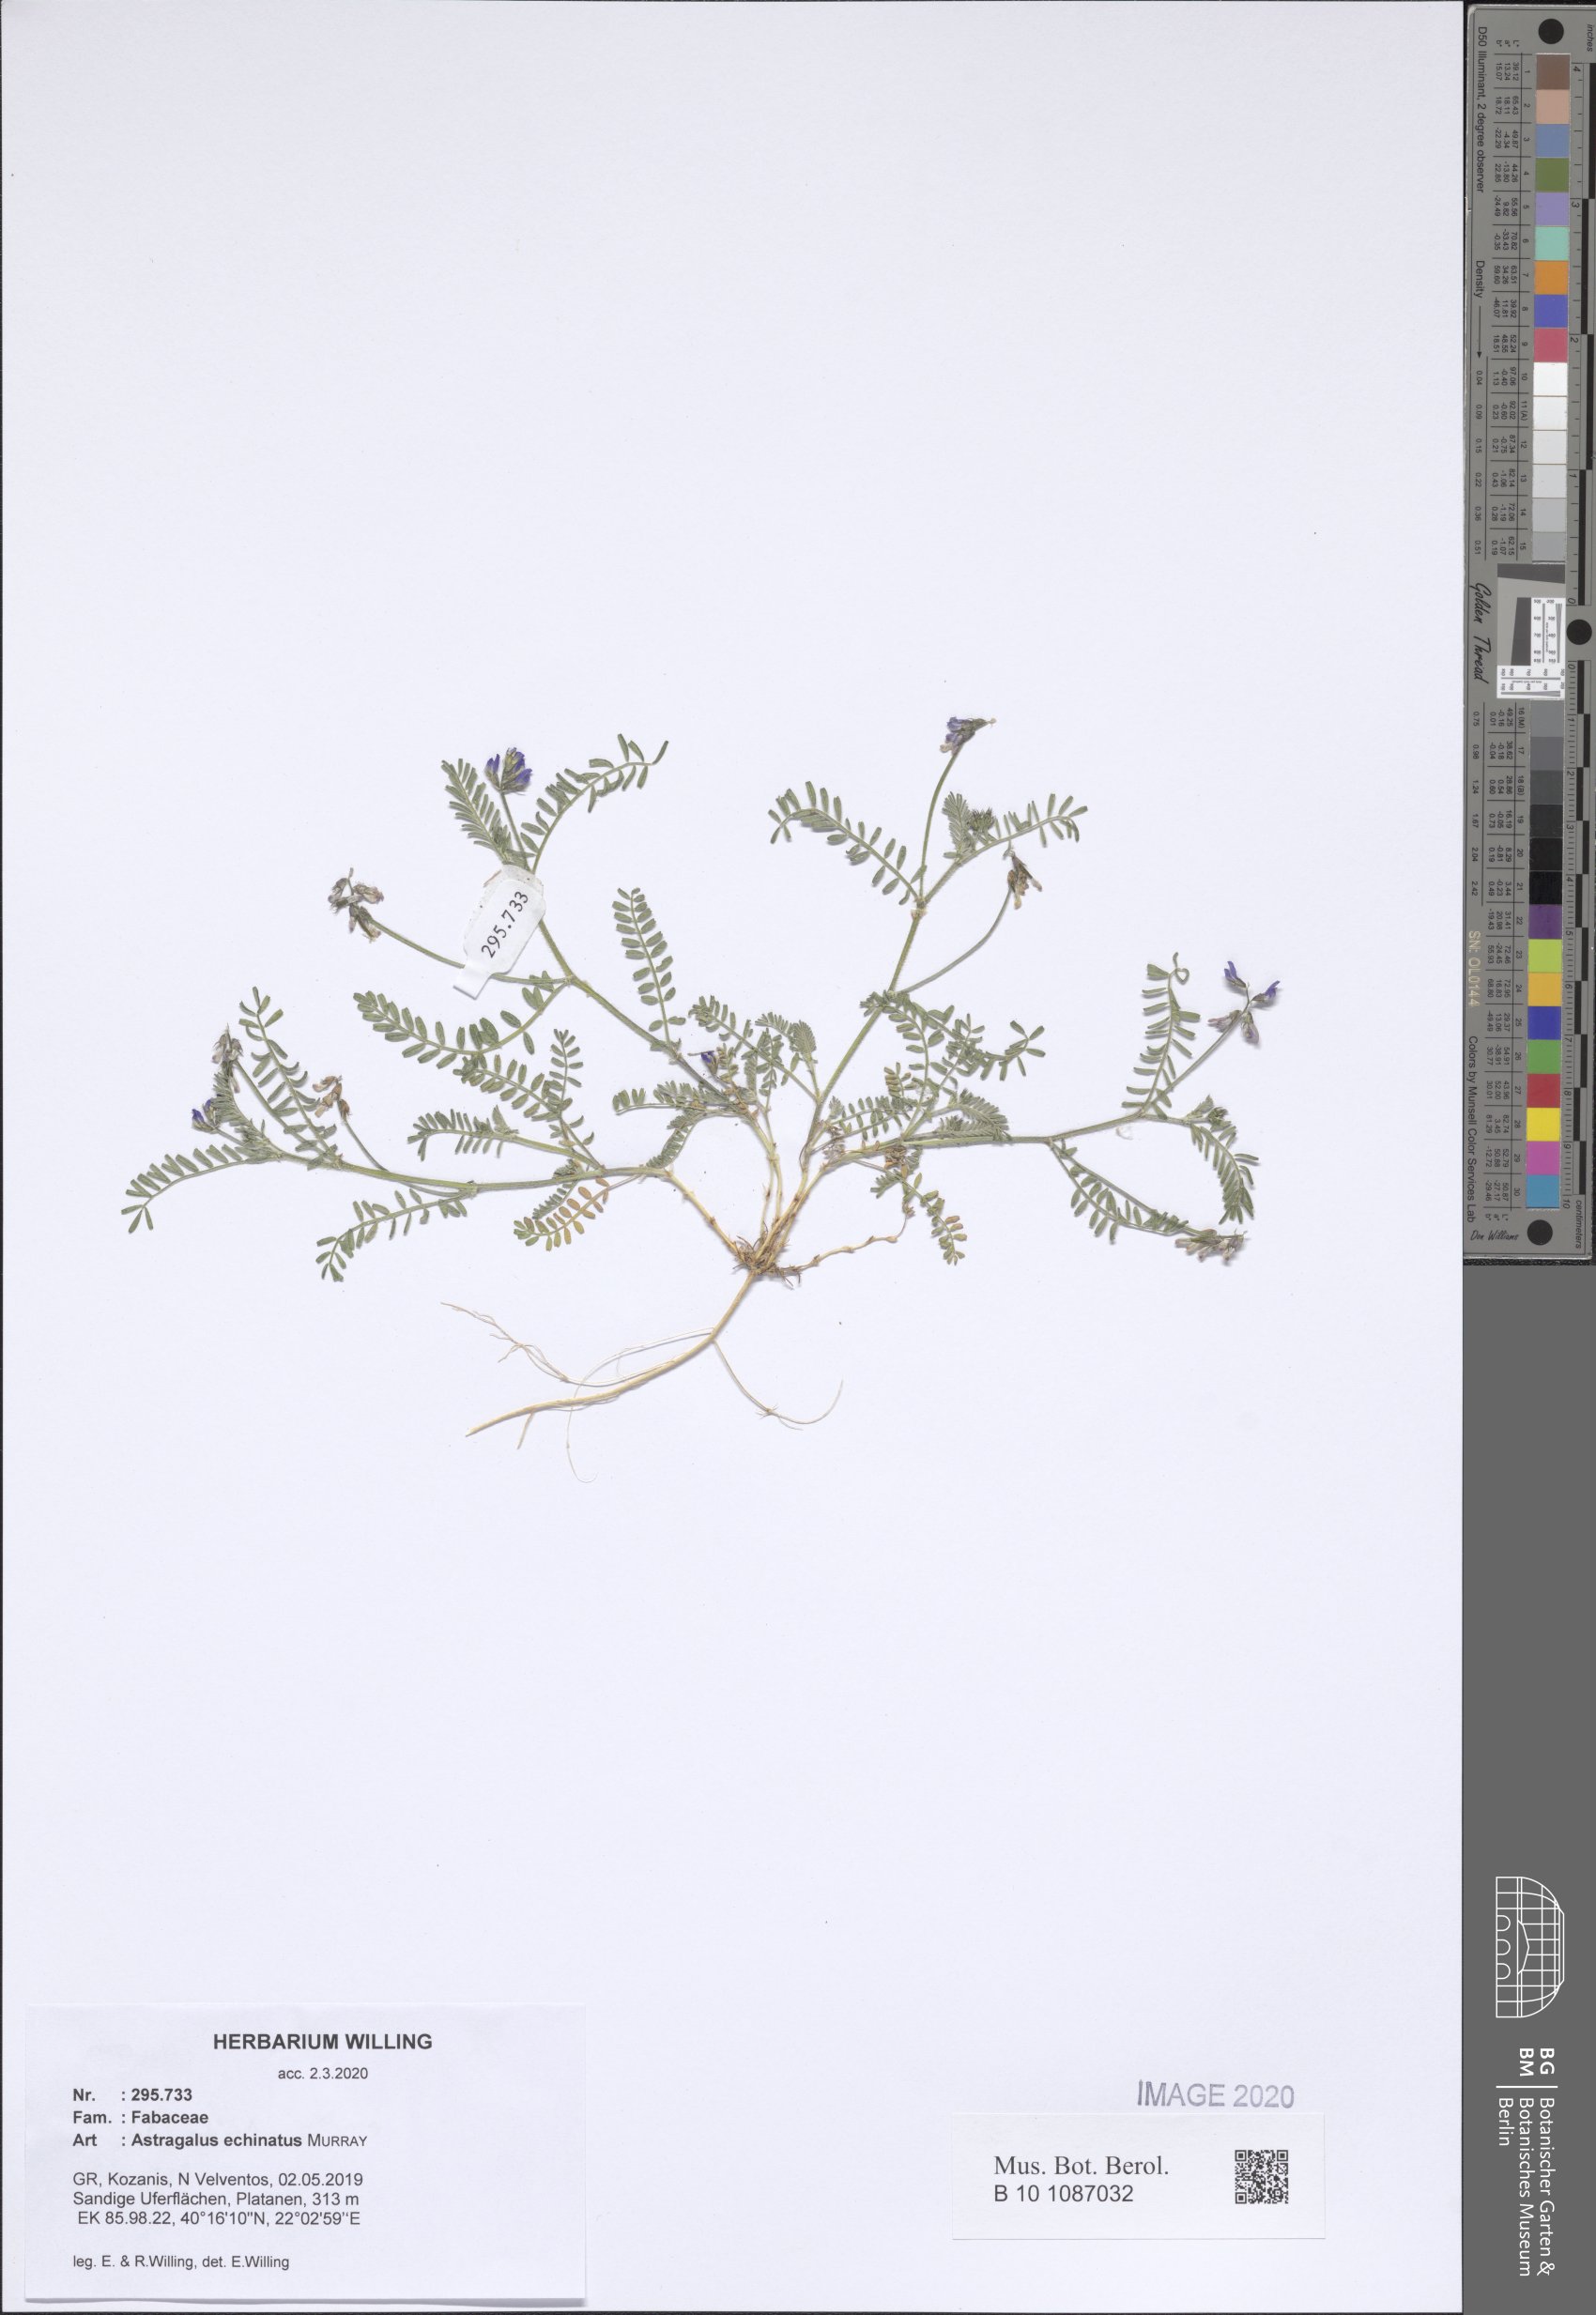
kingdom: Plantae
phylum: Tracheophyta
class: Magnoliopsida
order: Fabales
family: Fabaceae
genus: Astragalus
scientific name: Astragalus echinatus
